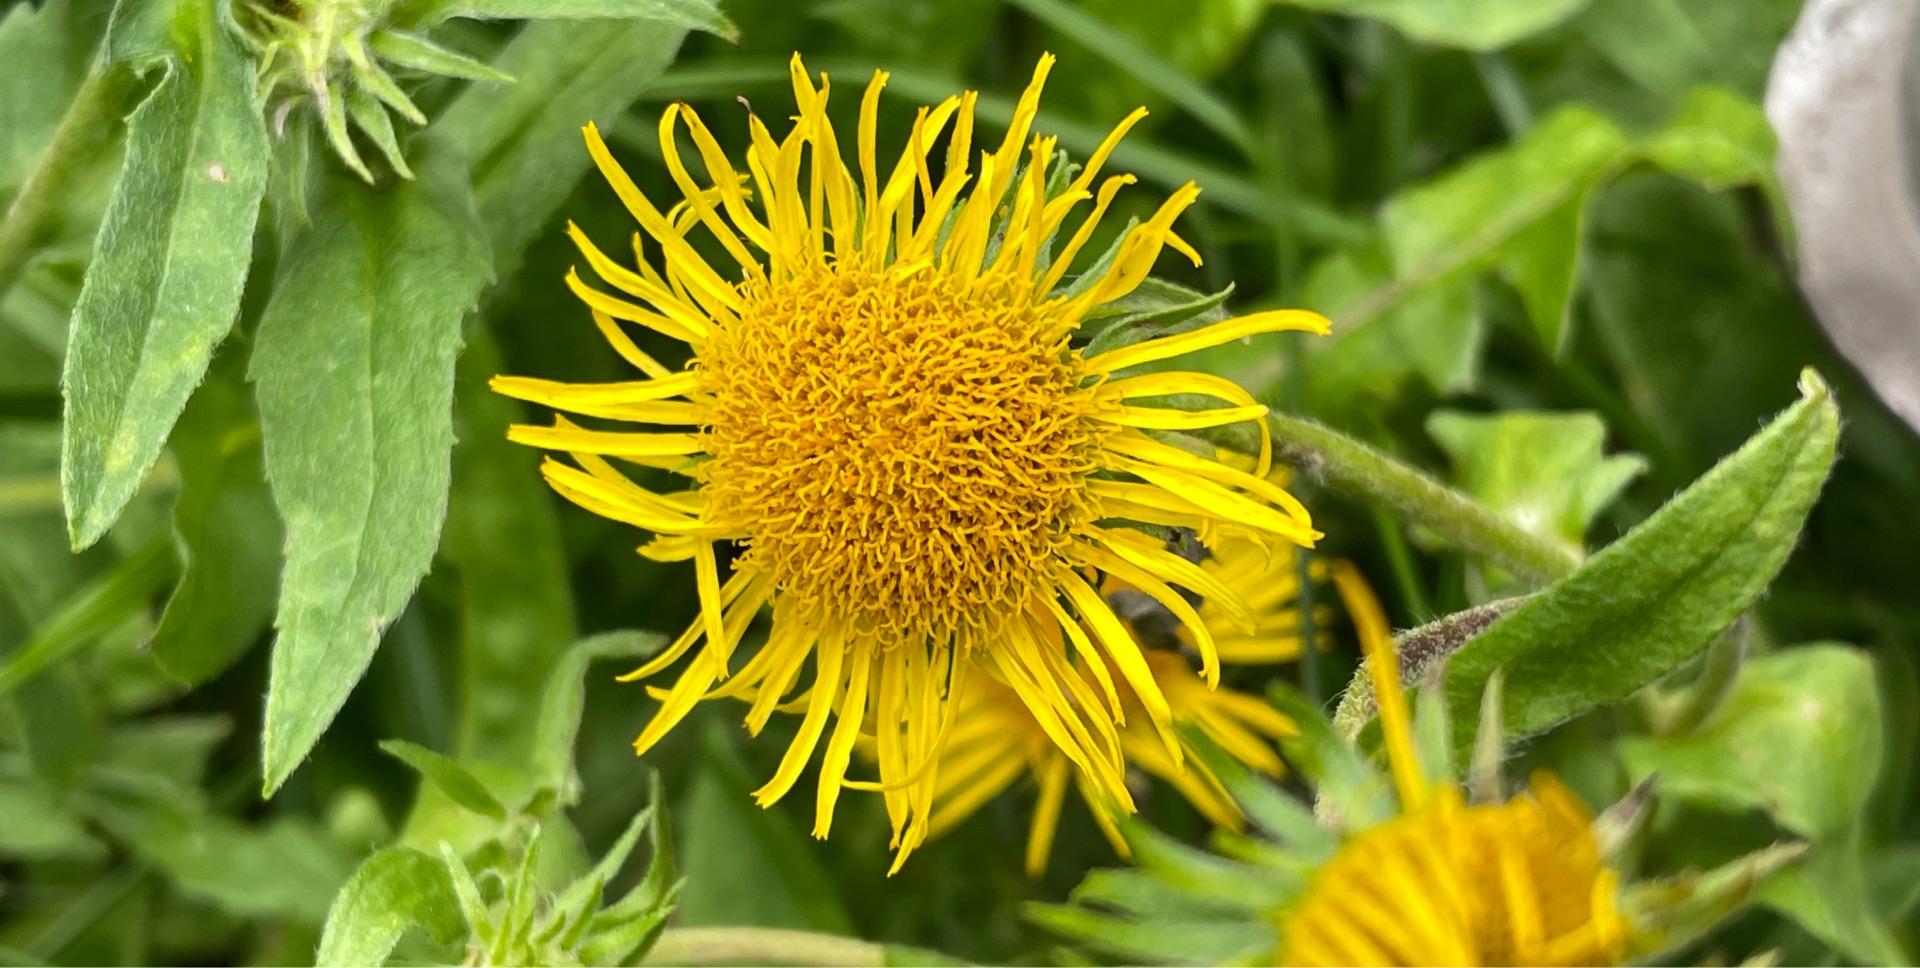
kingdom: Plantae
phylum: Tracheophyta
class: Magnoliopsida
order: Asterales
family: Asteraceae
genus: Pentanema
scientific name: Pentanema britannicum
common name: Soløje-alant
